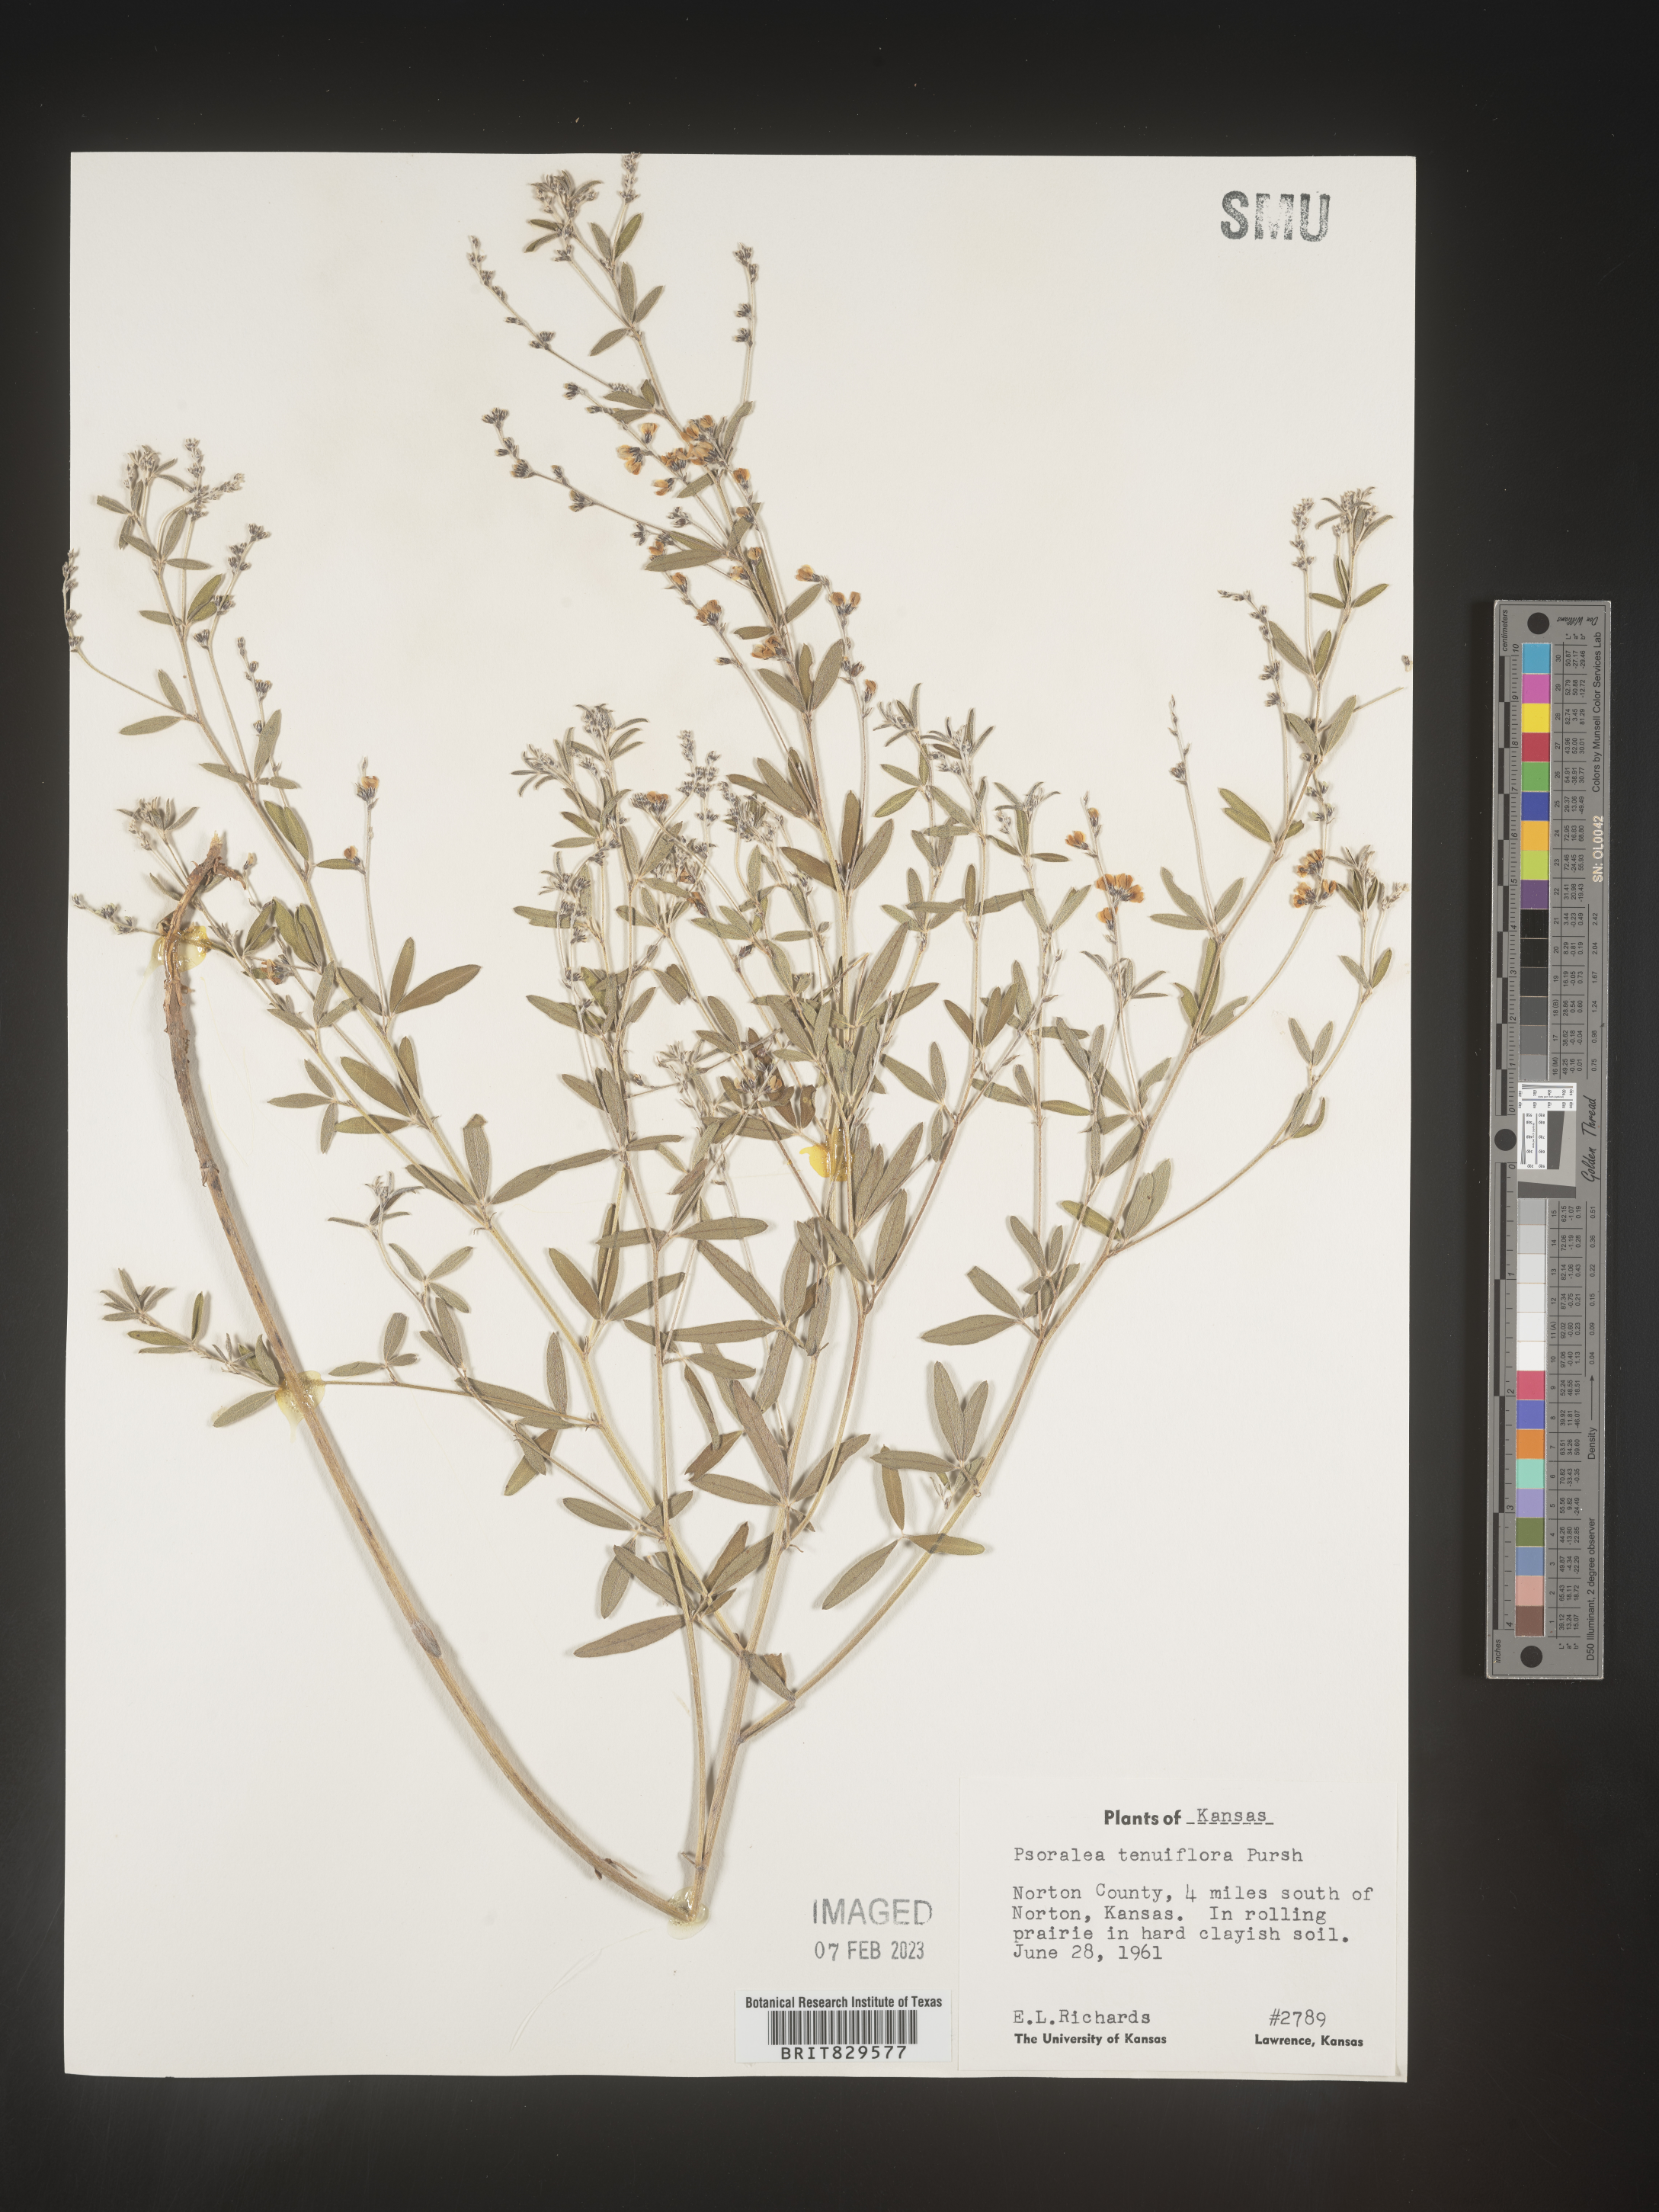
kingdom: Plantae
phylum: Tracheophyta
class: Magnoliopsida
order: Fabales
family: Fabaceae
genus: Pediomelum
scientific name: Pediomelum tenuiflorum
